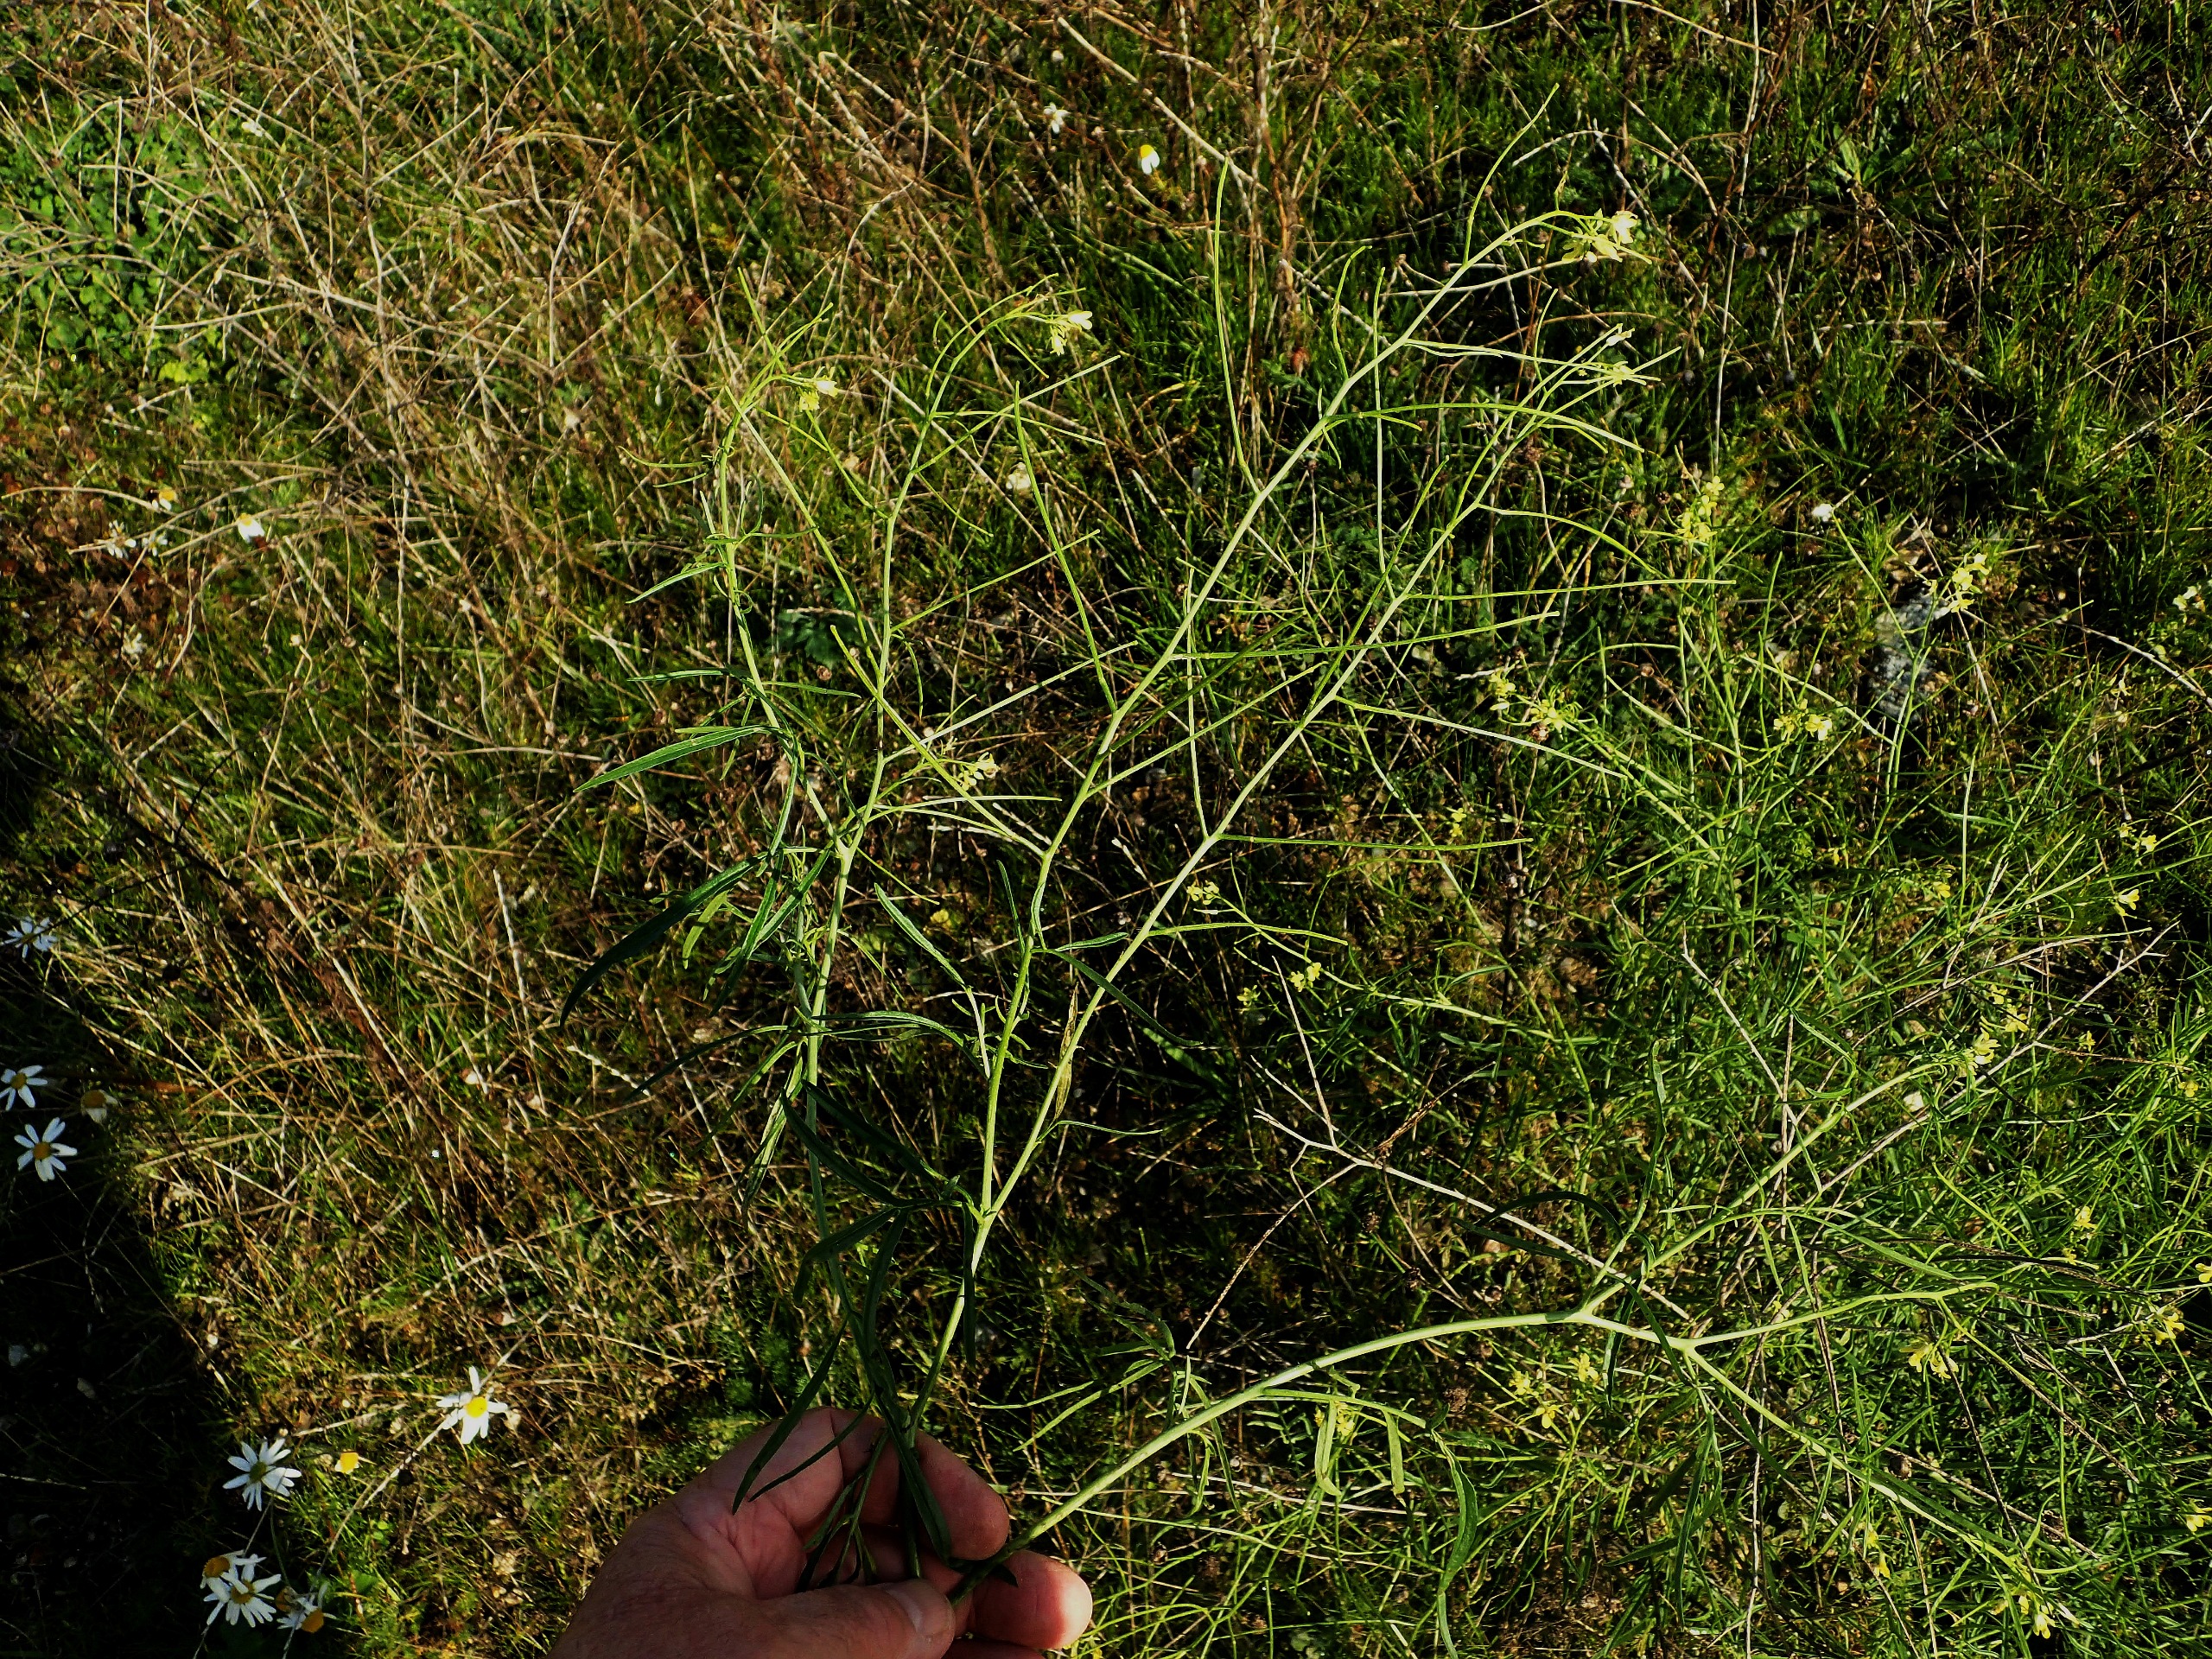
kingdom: Plantae
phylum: Tracheophyta
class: Magnoliopsida
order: Brassicales
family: Brassicaceae
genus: Sisymbrium
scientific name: Sisymbrium altissimum
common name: Ungarsk vejsennep
